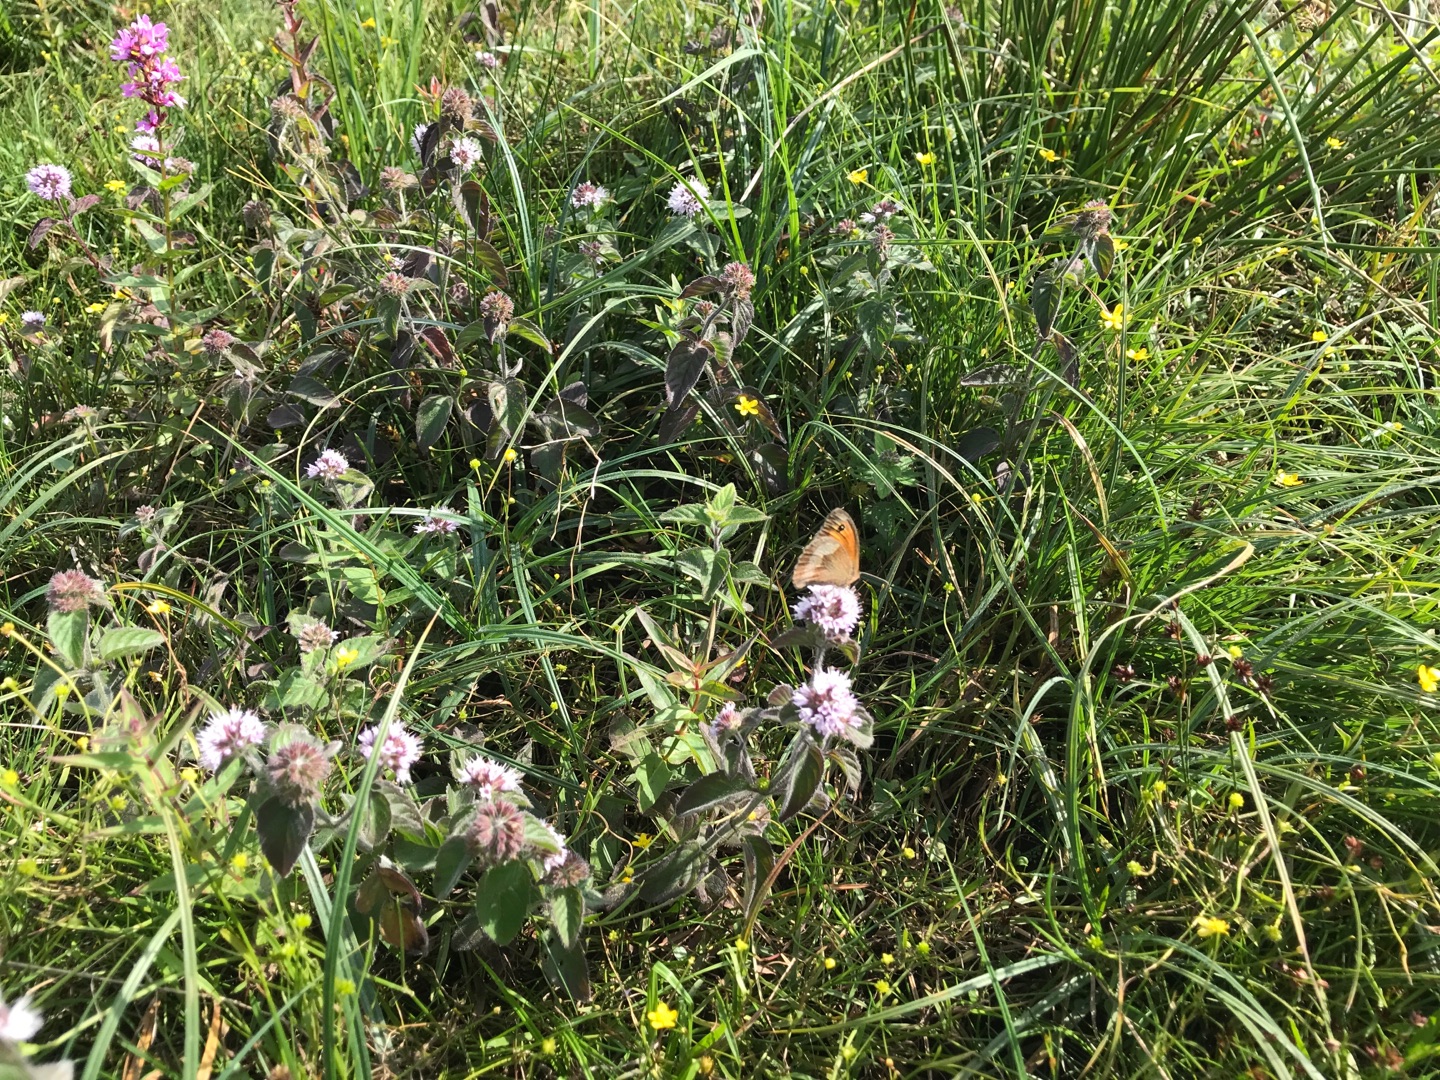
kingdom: Animalia
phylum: Arthropoda
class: Insecta
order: Lepidoptera
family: Nymphalidae
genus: Maniola
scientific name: Maniola jurtina
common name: Græsrandøje
